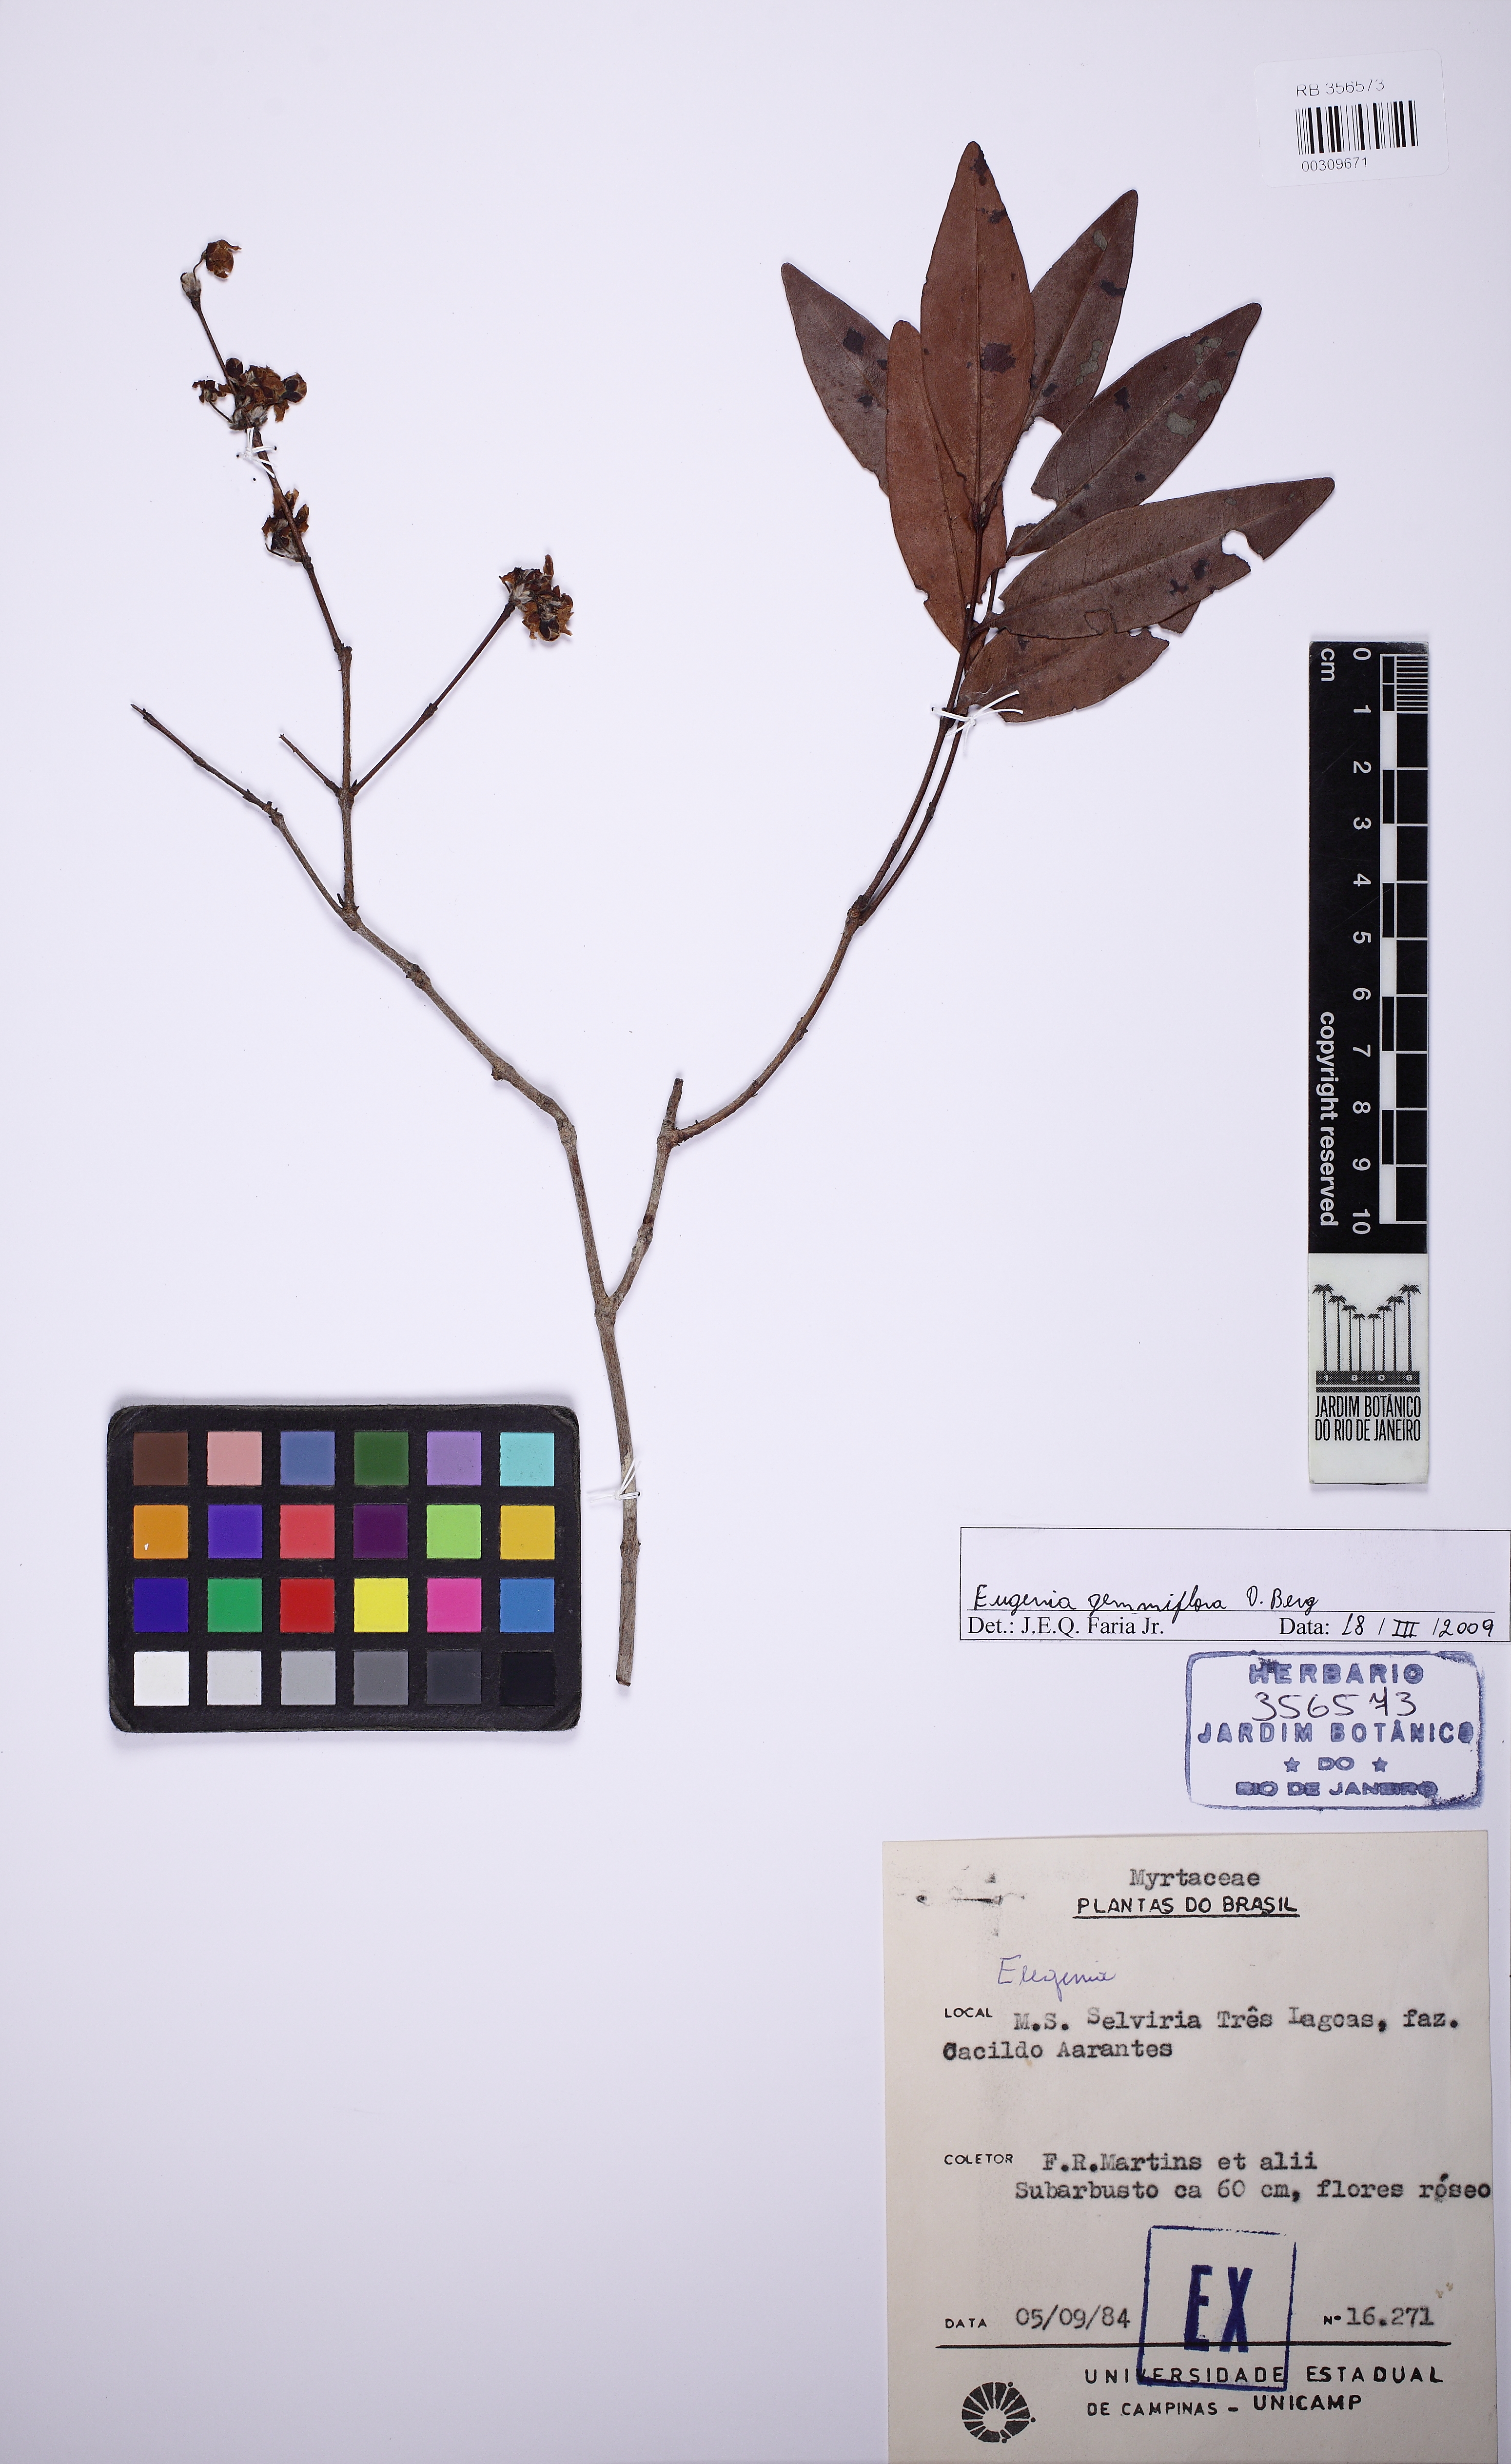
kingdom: Plantae
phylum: Tracheophyta
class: Magnoliopsida
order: Myrtales
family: Myrtaceae
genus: Eugenia
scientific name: Eugenia gemmiflora
